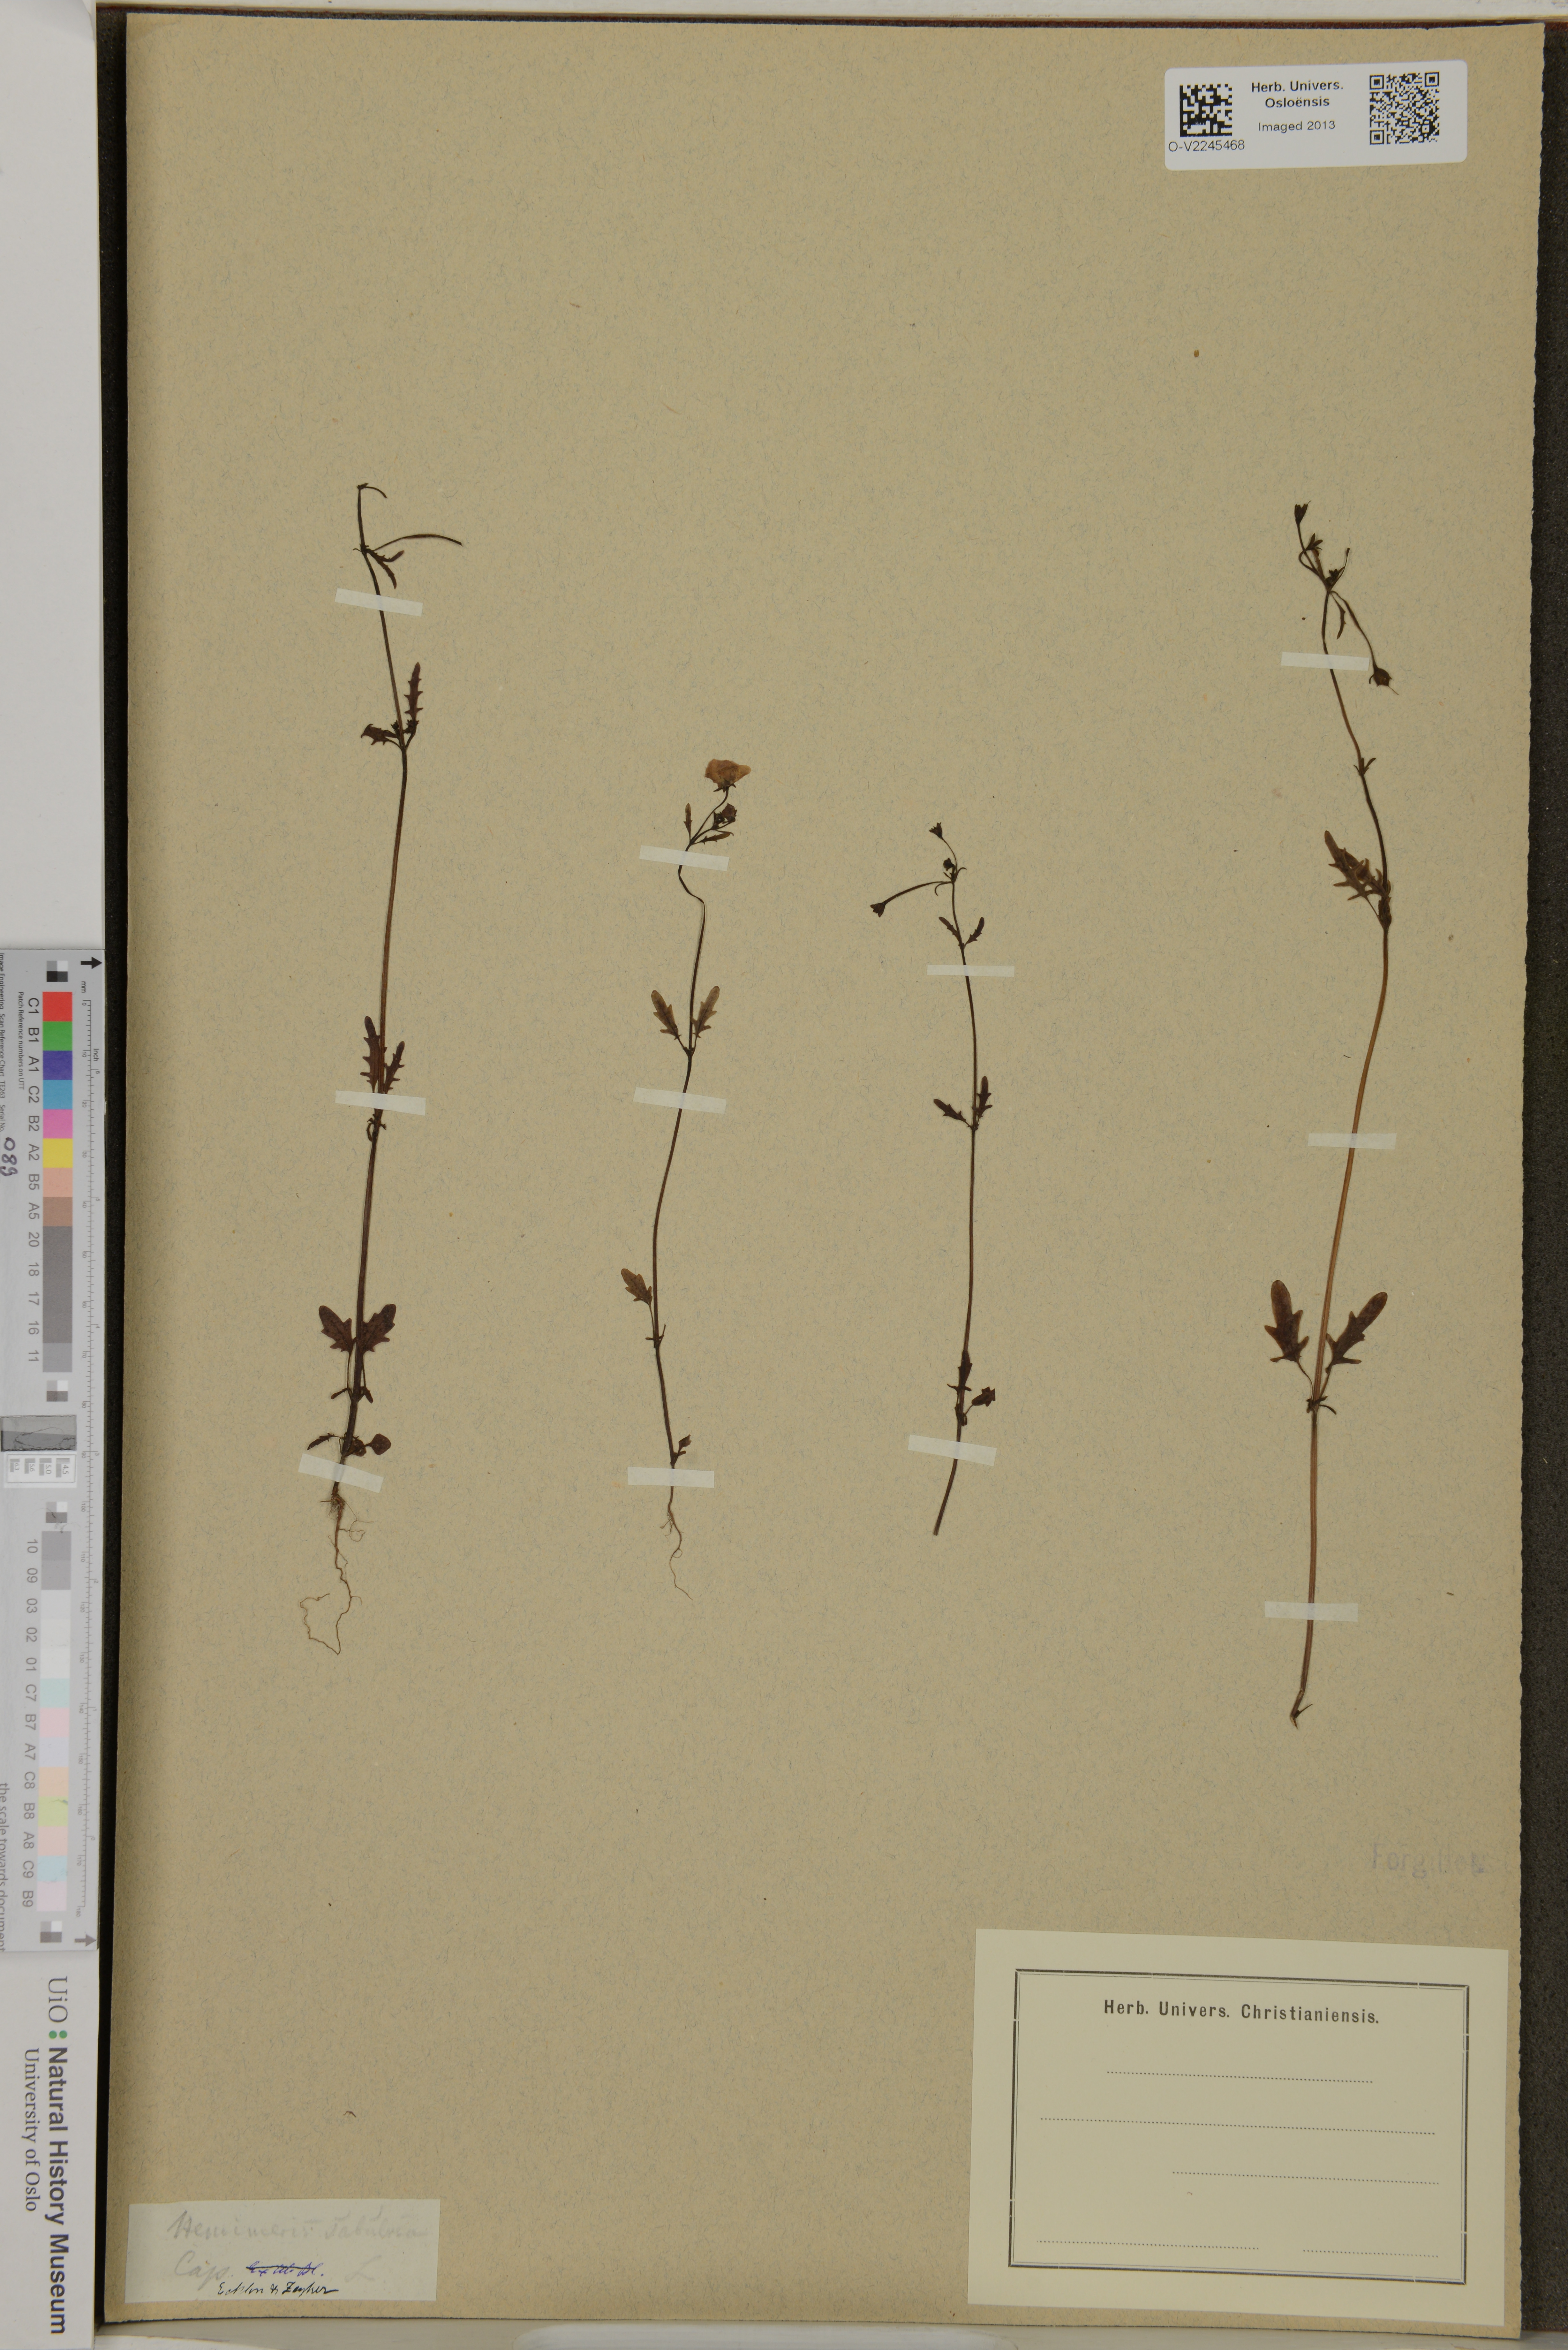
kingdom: Plantae
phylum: Tracheophyta
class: Magnoliopsida
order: Lamiales
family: Scrophulariaceae
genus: Hemimeris
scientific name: Hemimeris sabulosa
